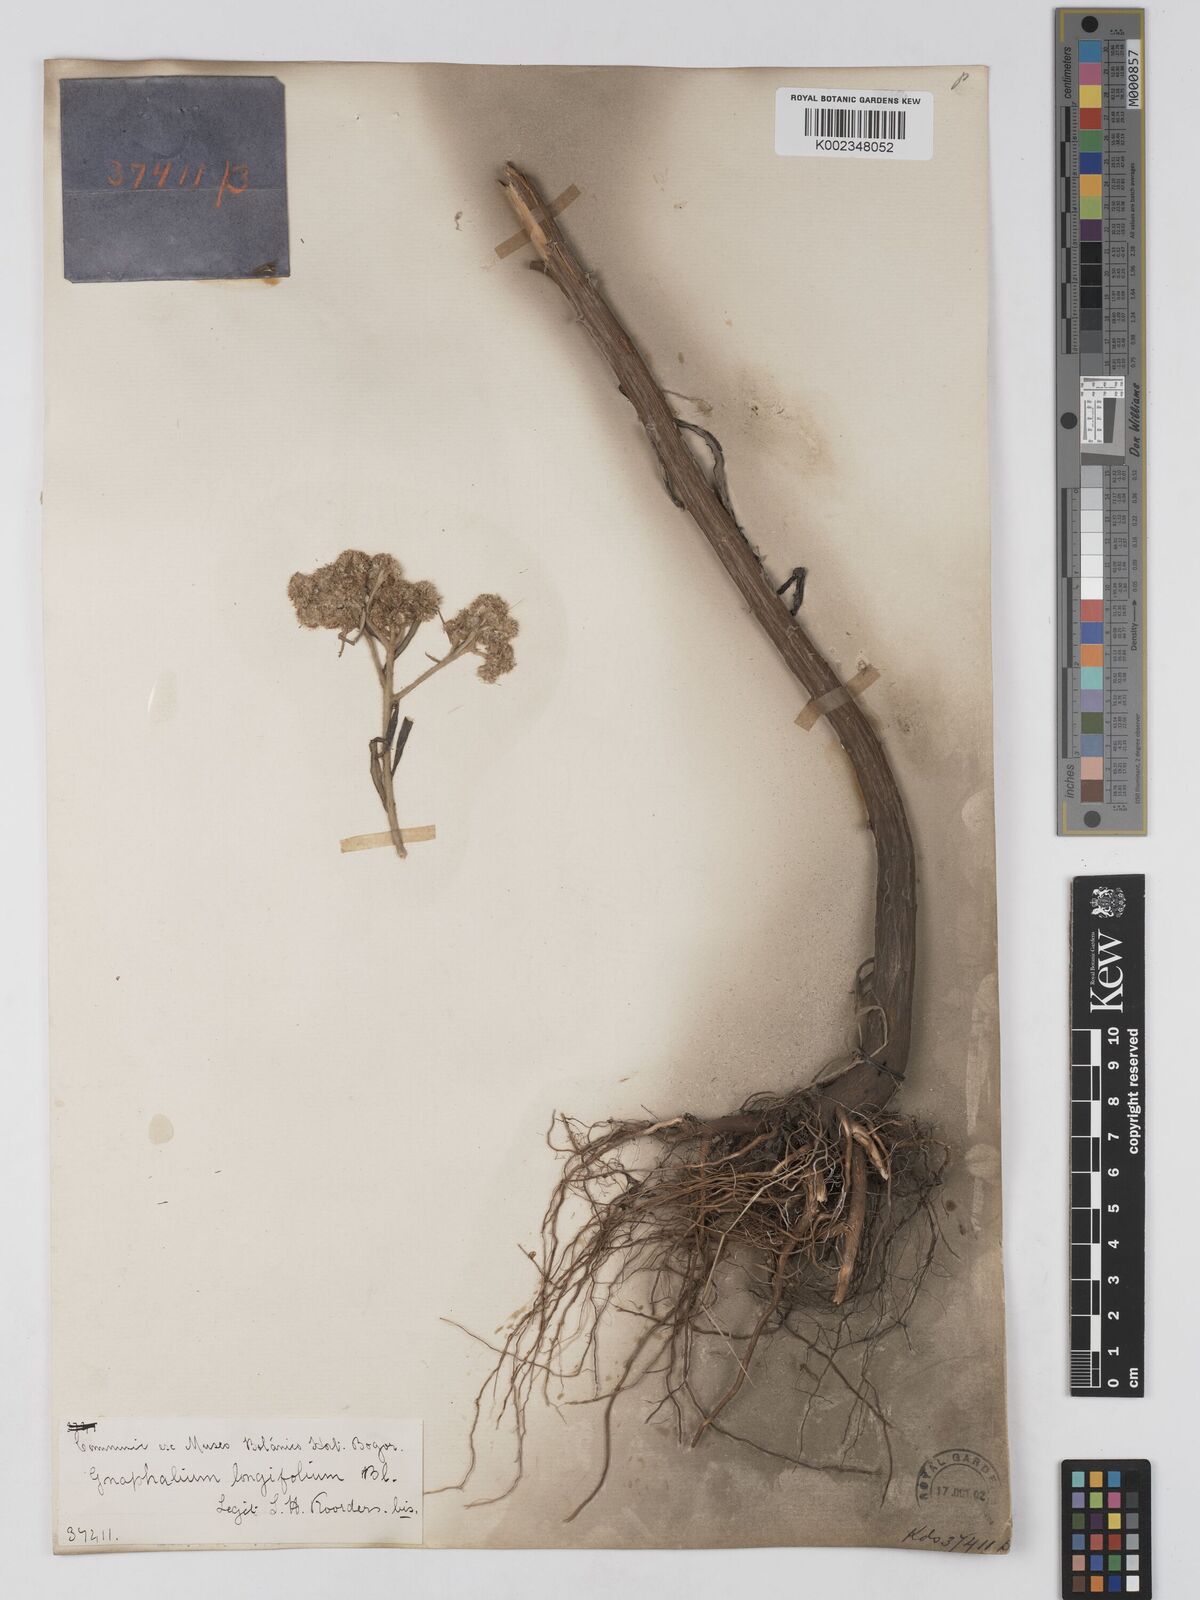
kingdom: Plantae
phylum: Tracheophyta
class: Magnoliopsida
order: Asterales
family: Asteraceae
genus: Anaphalis
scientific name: Anaphalis longifolia
